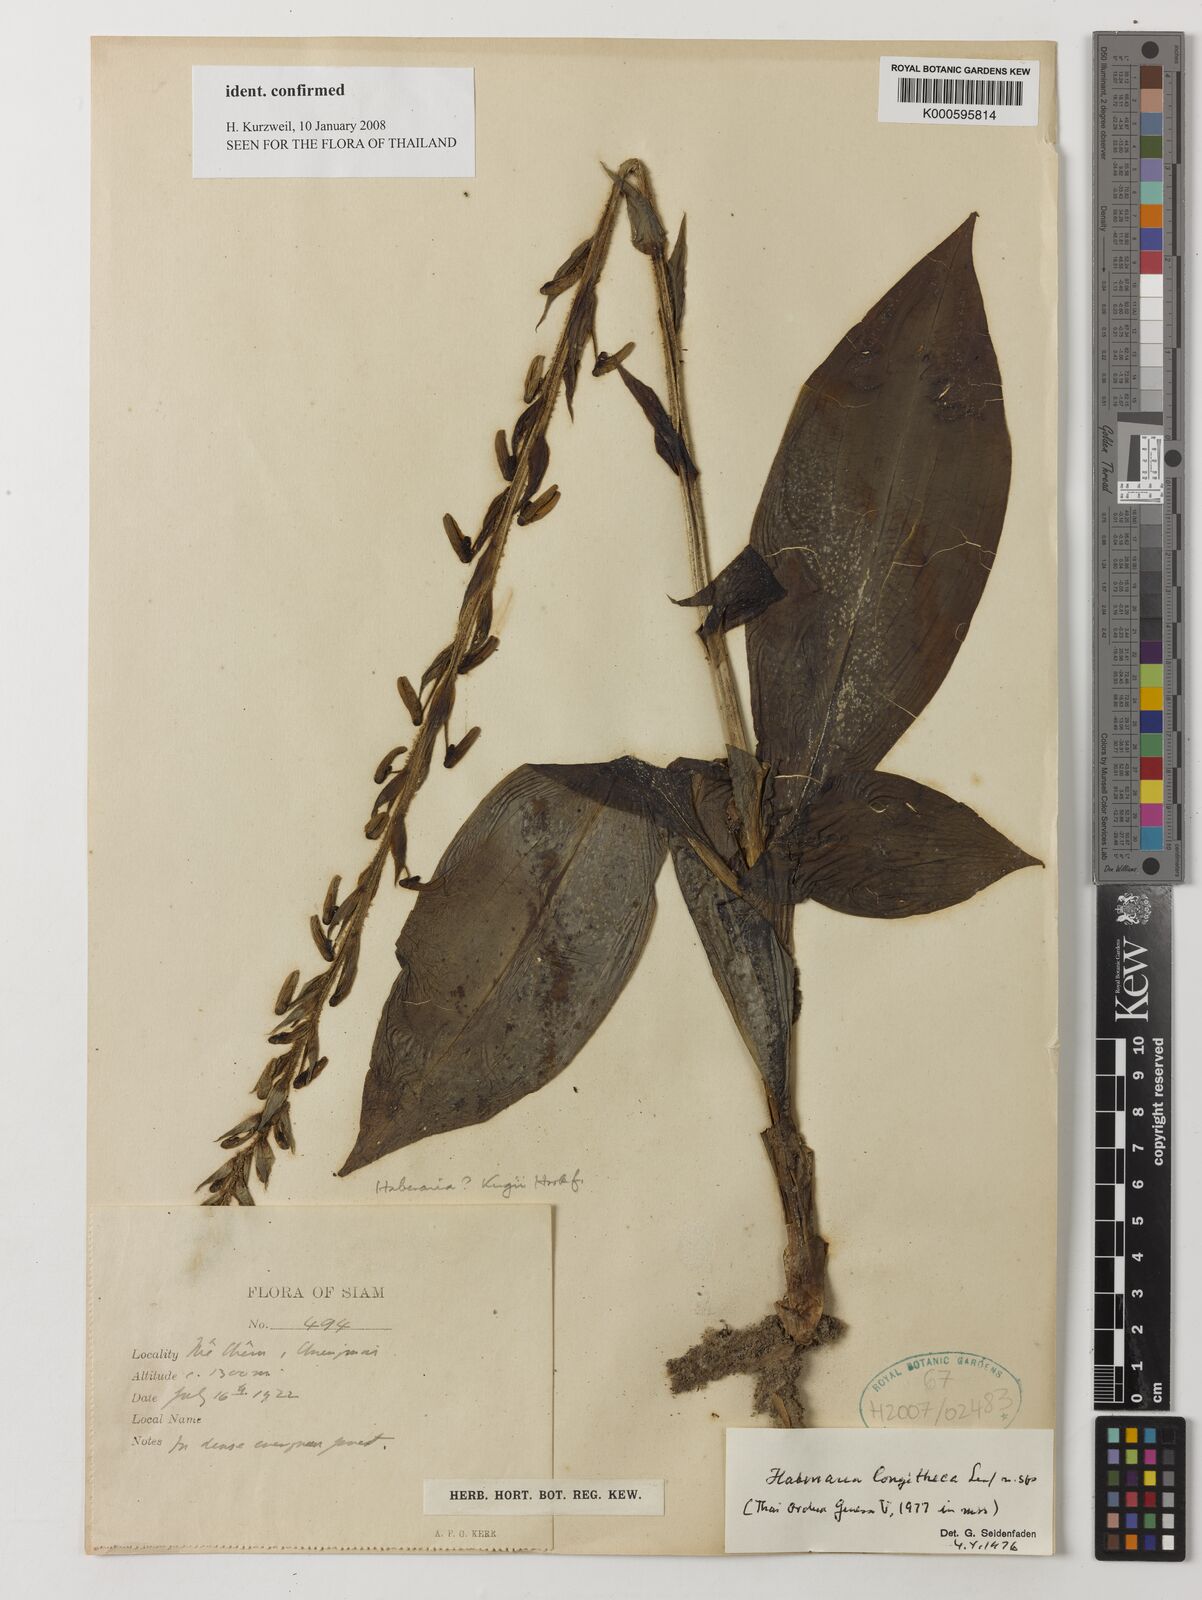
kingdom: Plantae
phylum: Tracheophyta
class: Liliopsida
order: Asparagales
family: Orchidaceae
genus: Habenaria
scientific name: Habenaria longitheca
